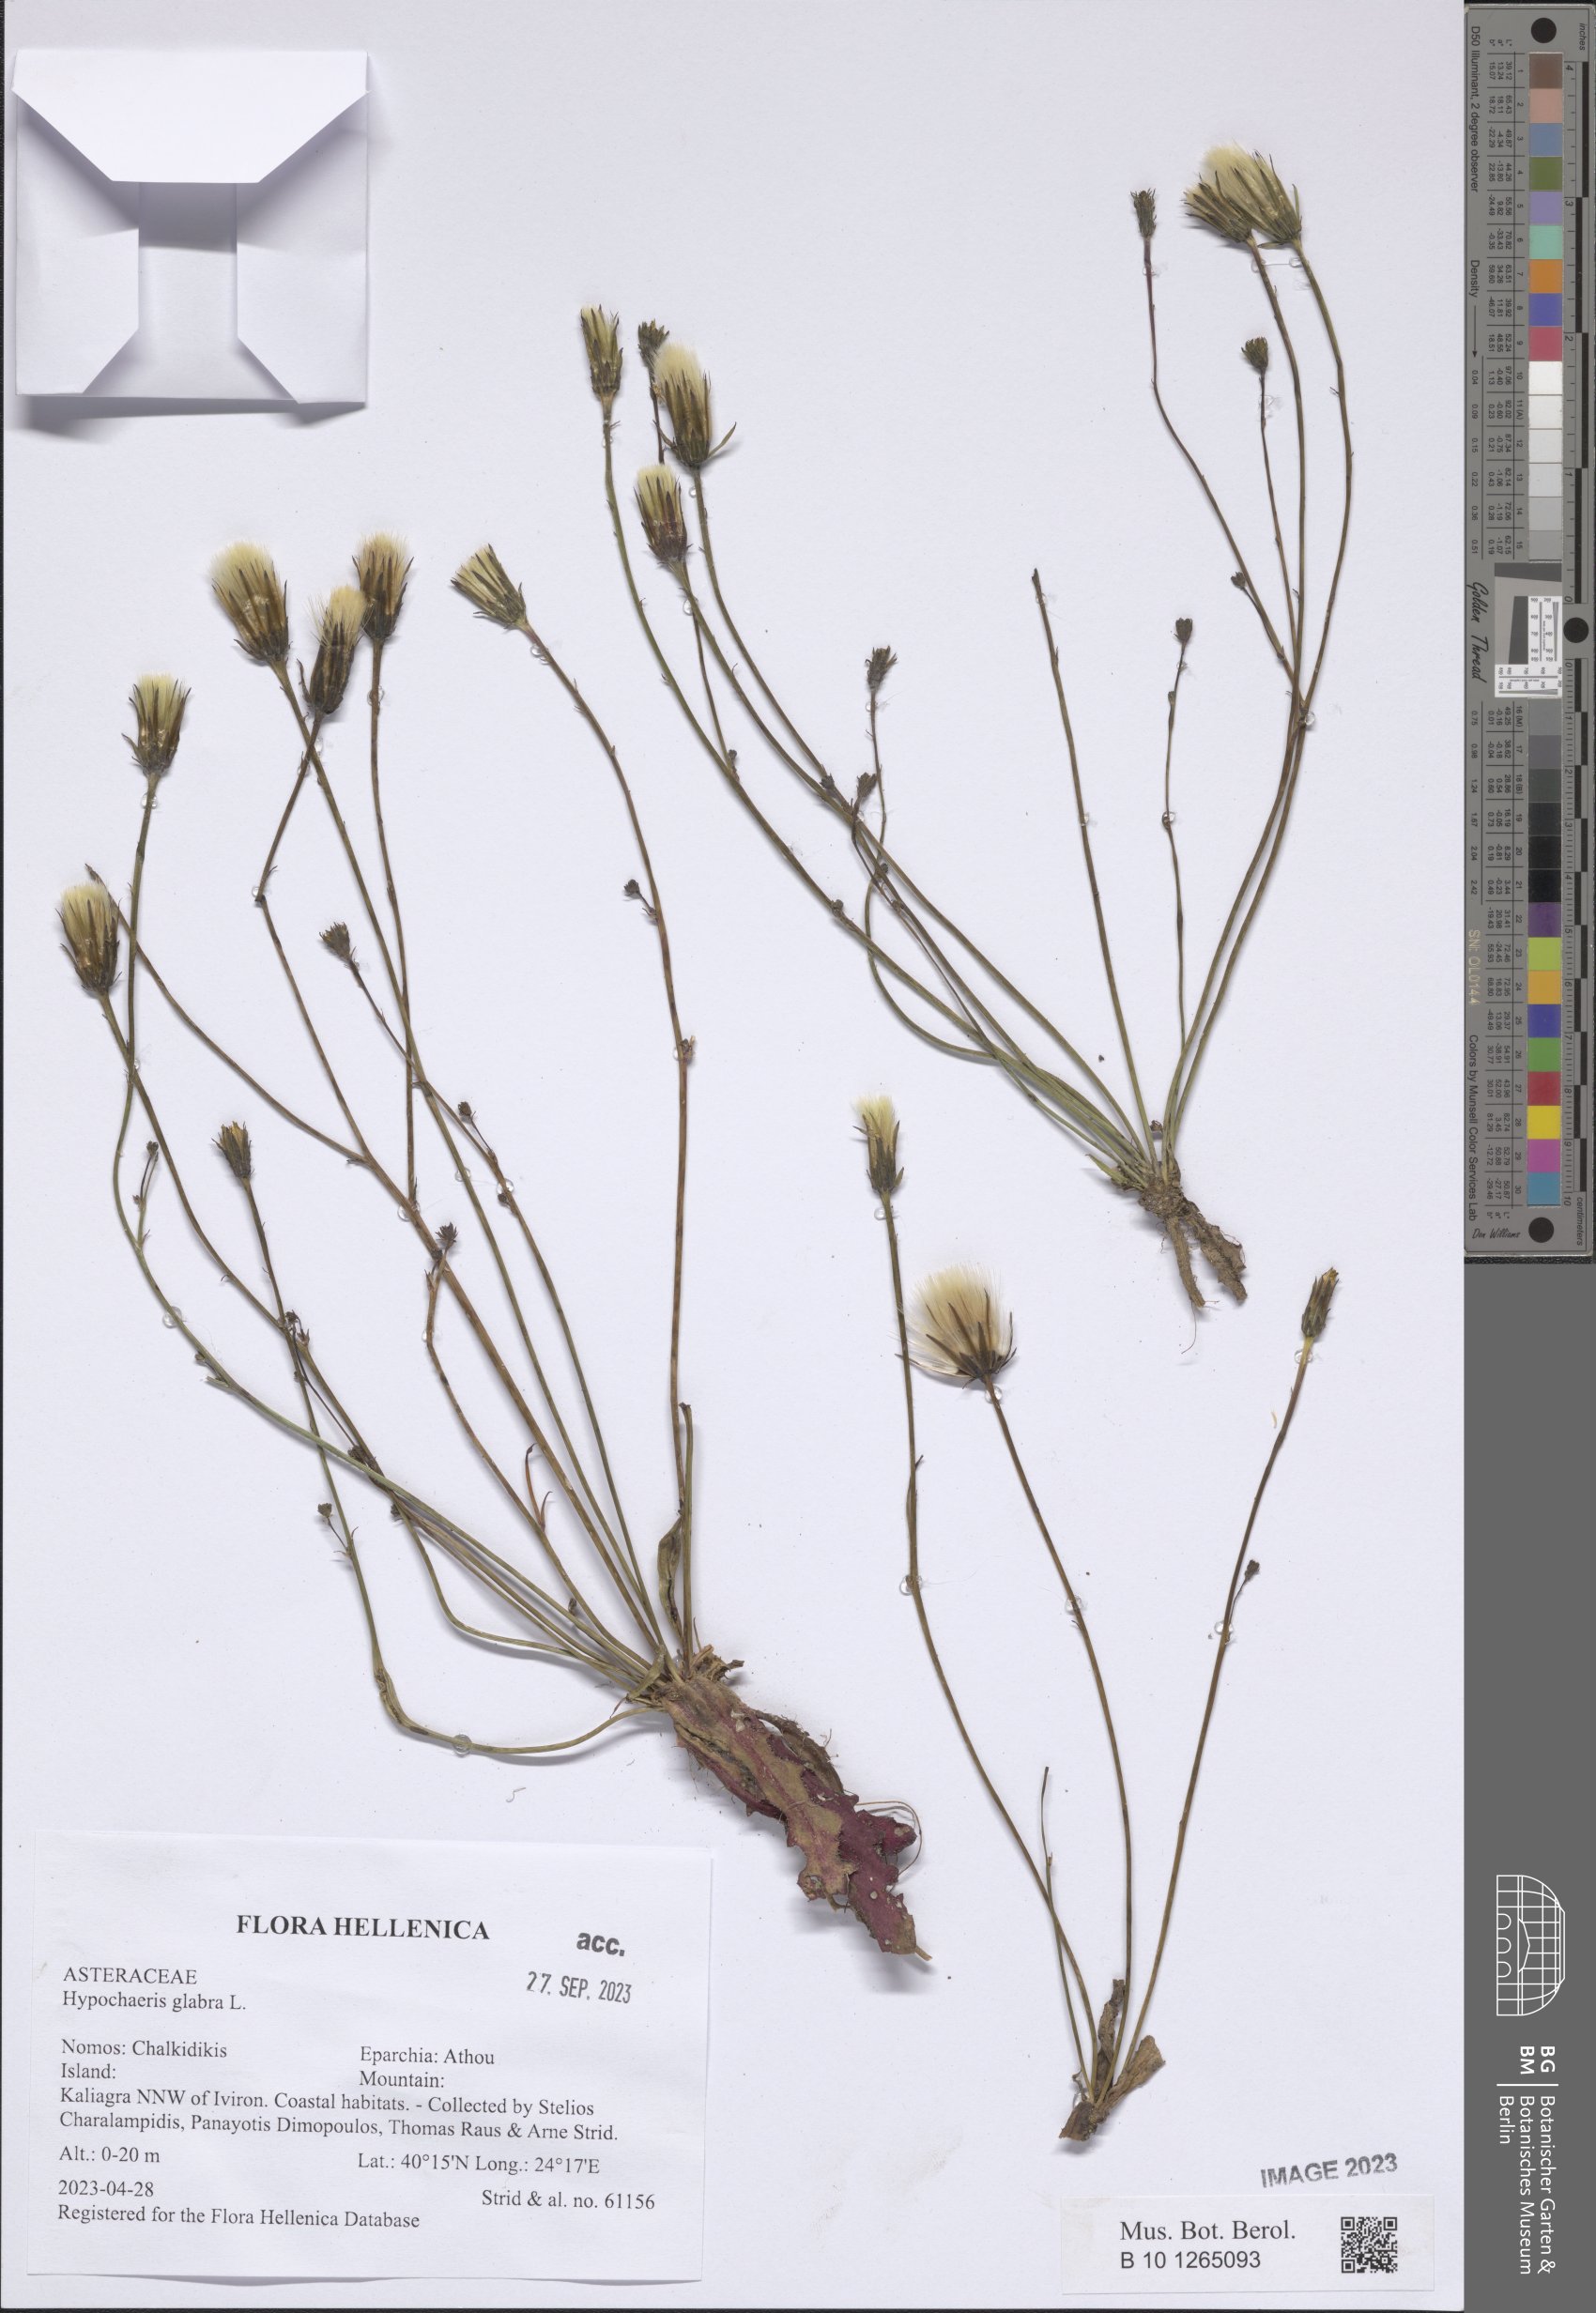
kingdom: Plantae
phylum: Tracheophyta
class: Magnoliopsida
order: Asterales
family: Asteraceae
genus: Hypochaeris
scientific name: Hypochaeris glabra
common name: Smooth catsear
